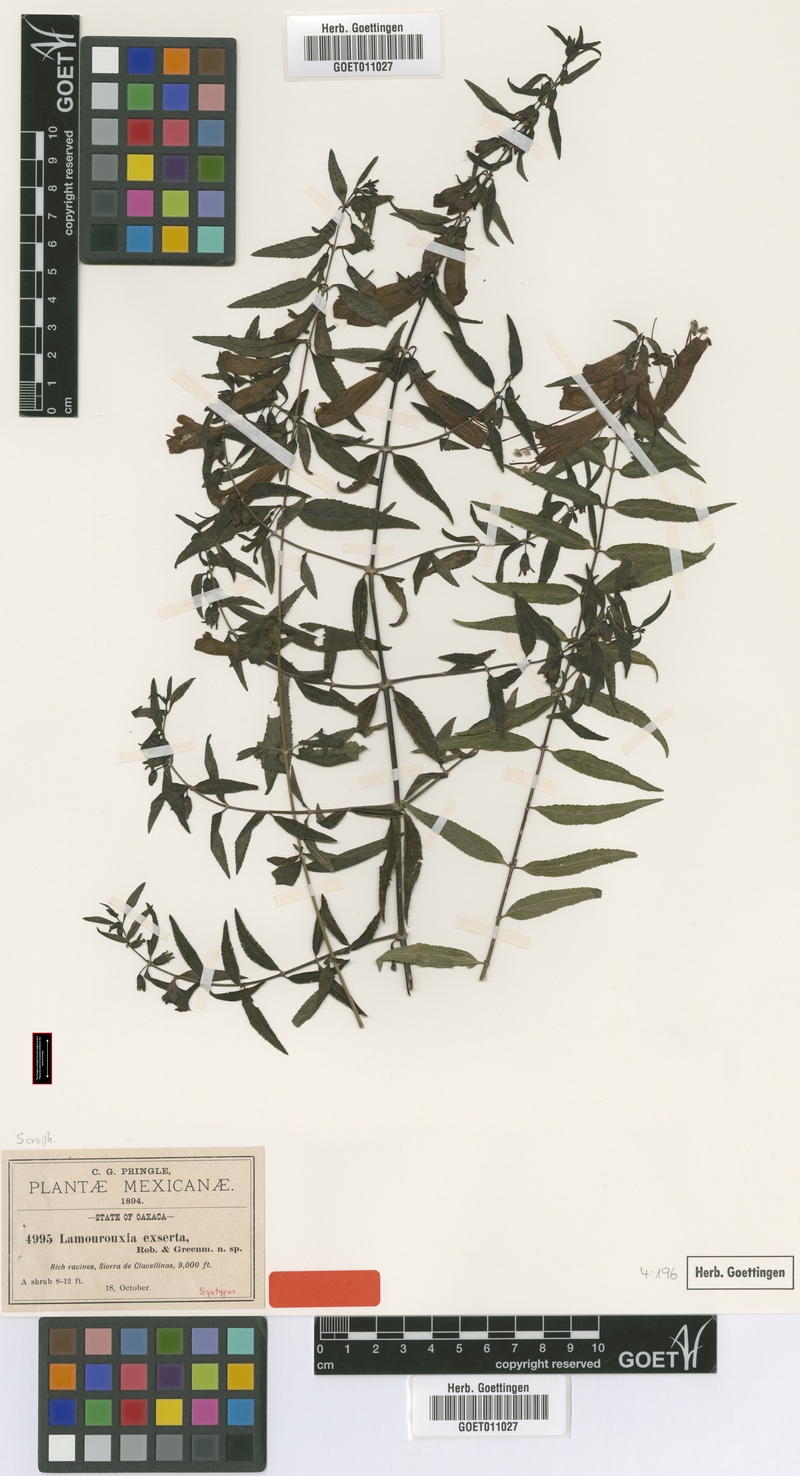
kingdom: Plantae
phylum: Tracheophyta
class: Magnoliopsida
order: Lamiales
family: Orobanchaceae
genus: Lamourouxia
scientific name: Lamourouxia xalapensis
